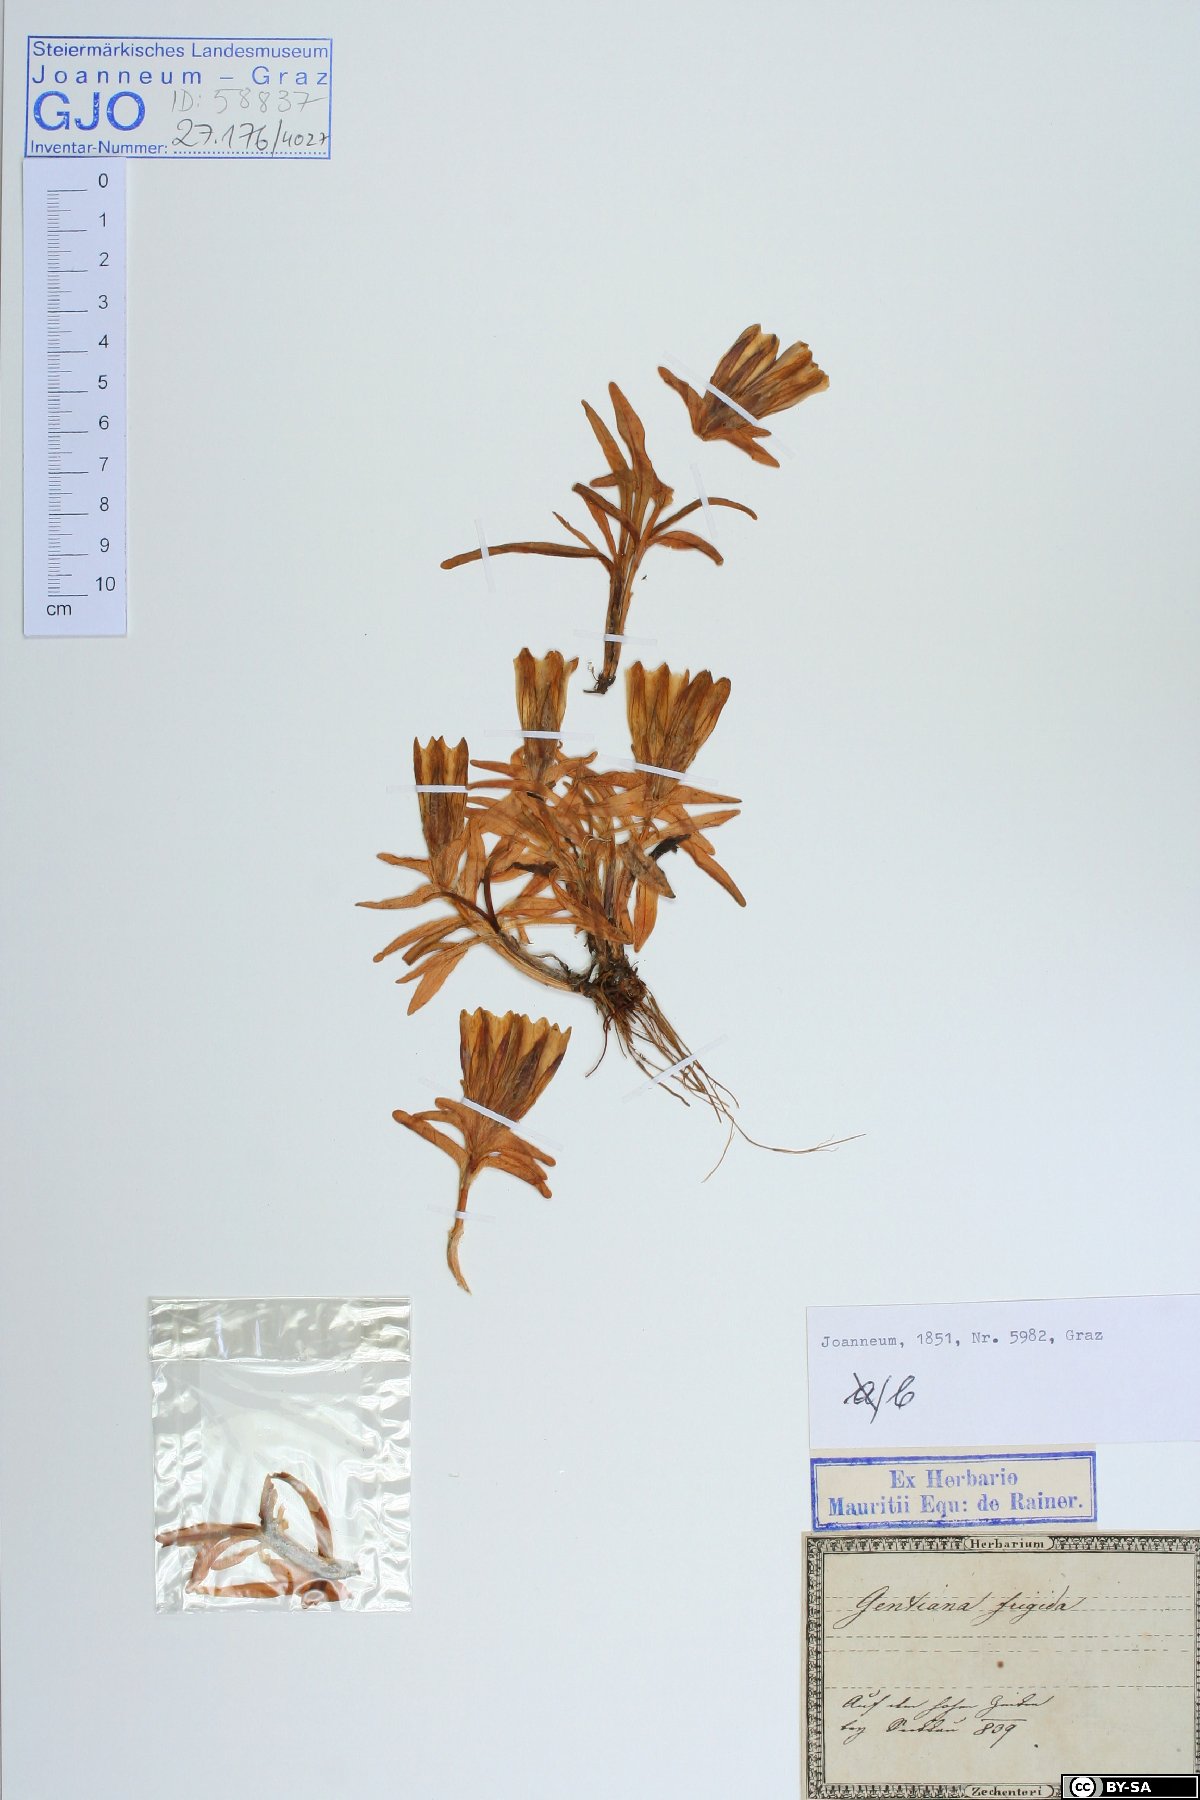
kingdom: Plantae
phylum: Tracheophyta
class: Magnoliopsida
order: Gentianales
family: Gentianaceae
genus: Gentiana
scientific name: Gentiana frigida
